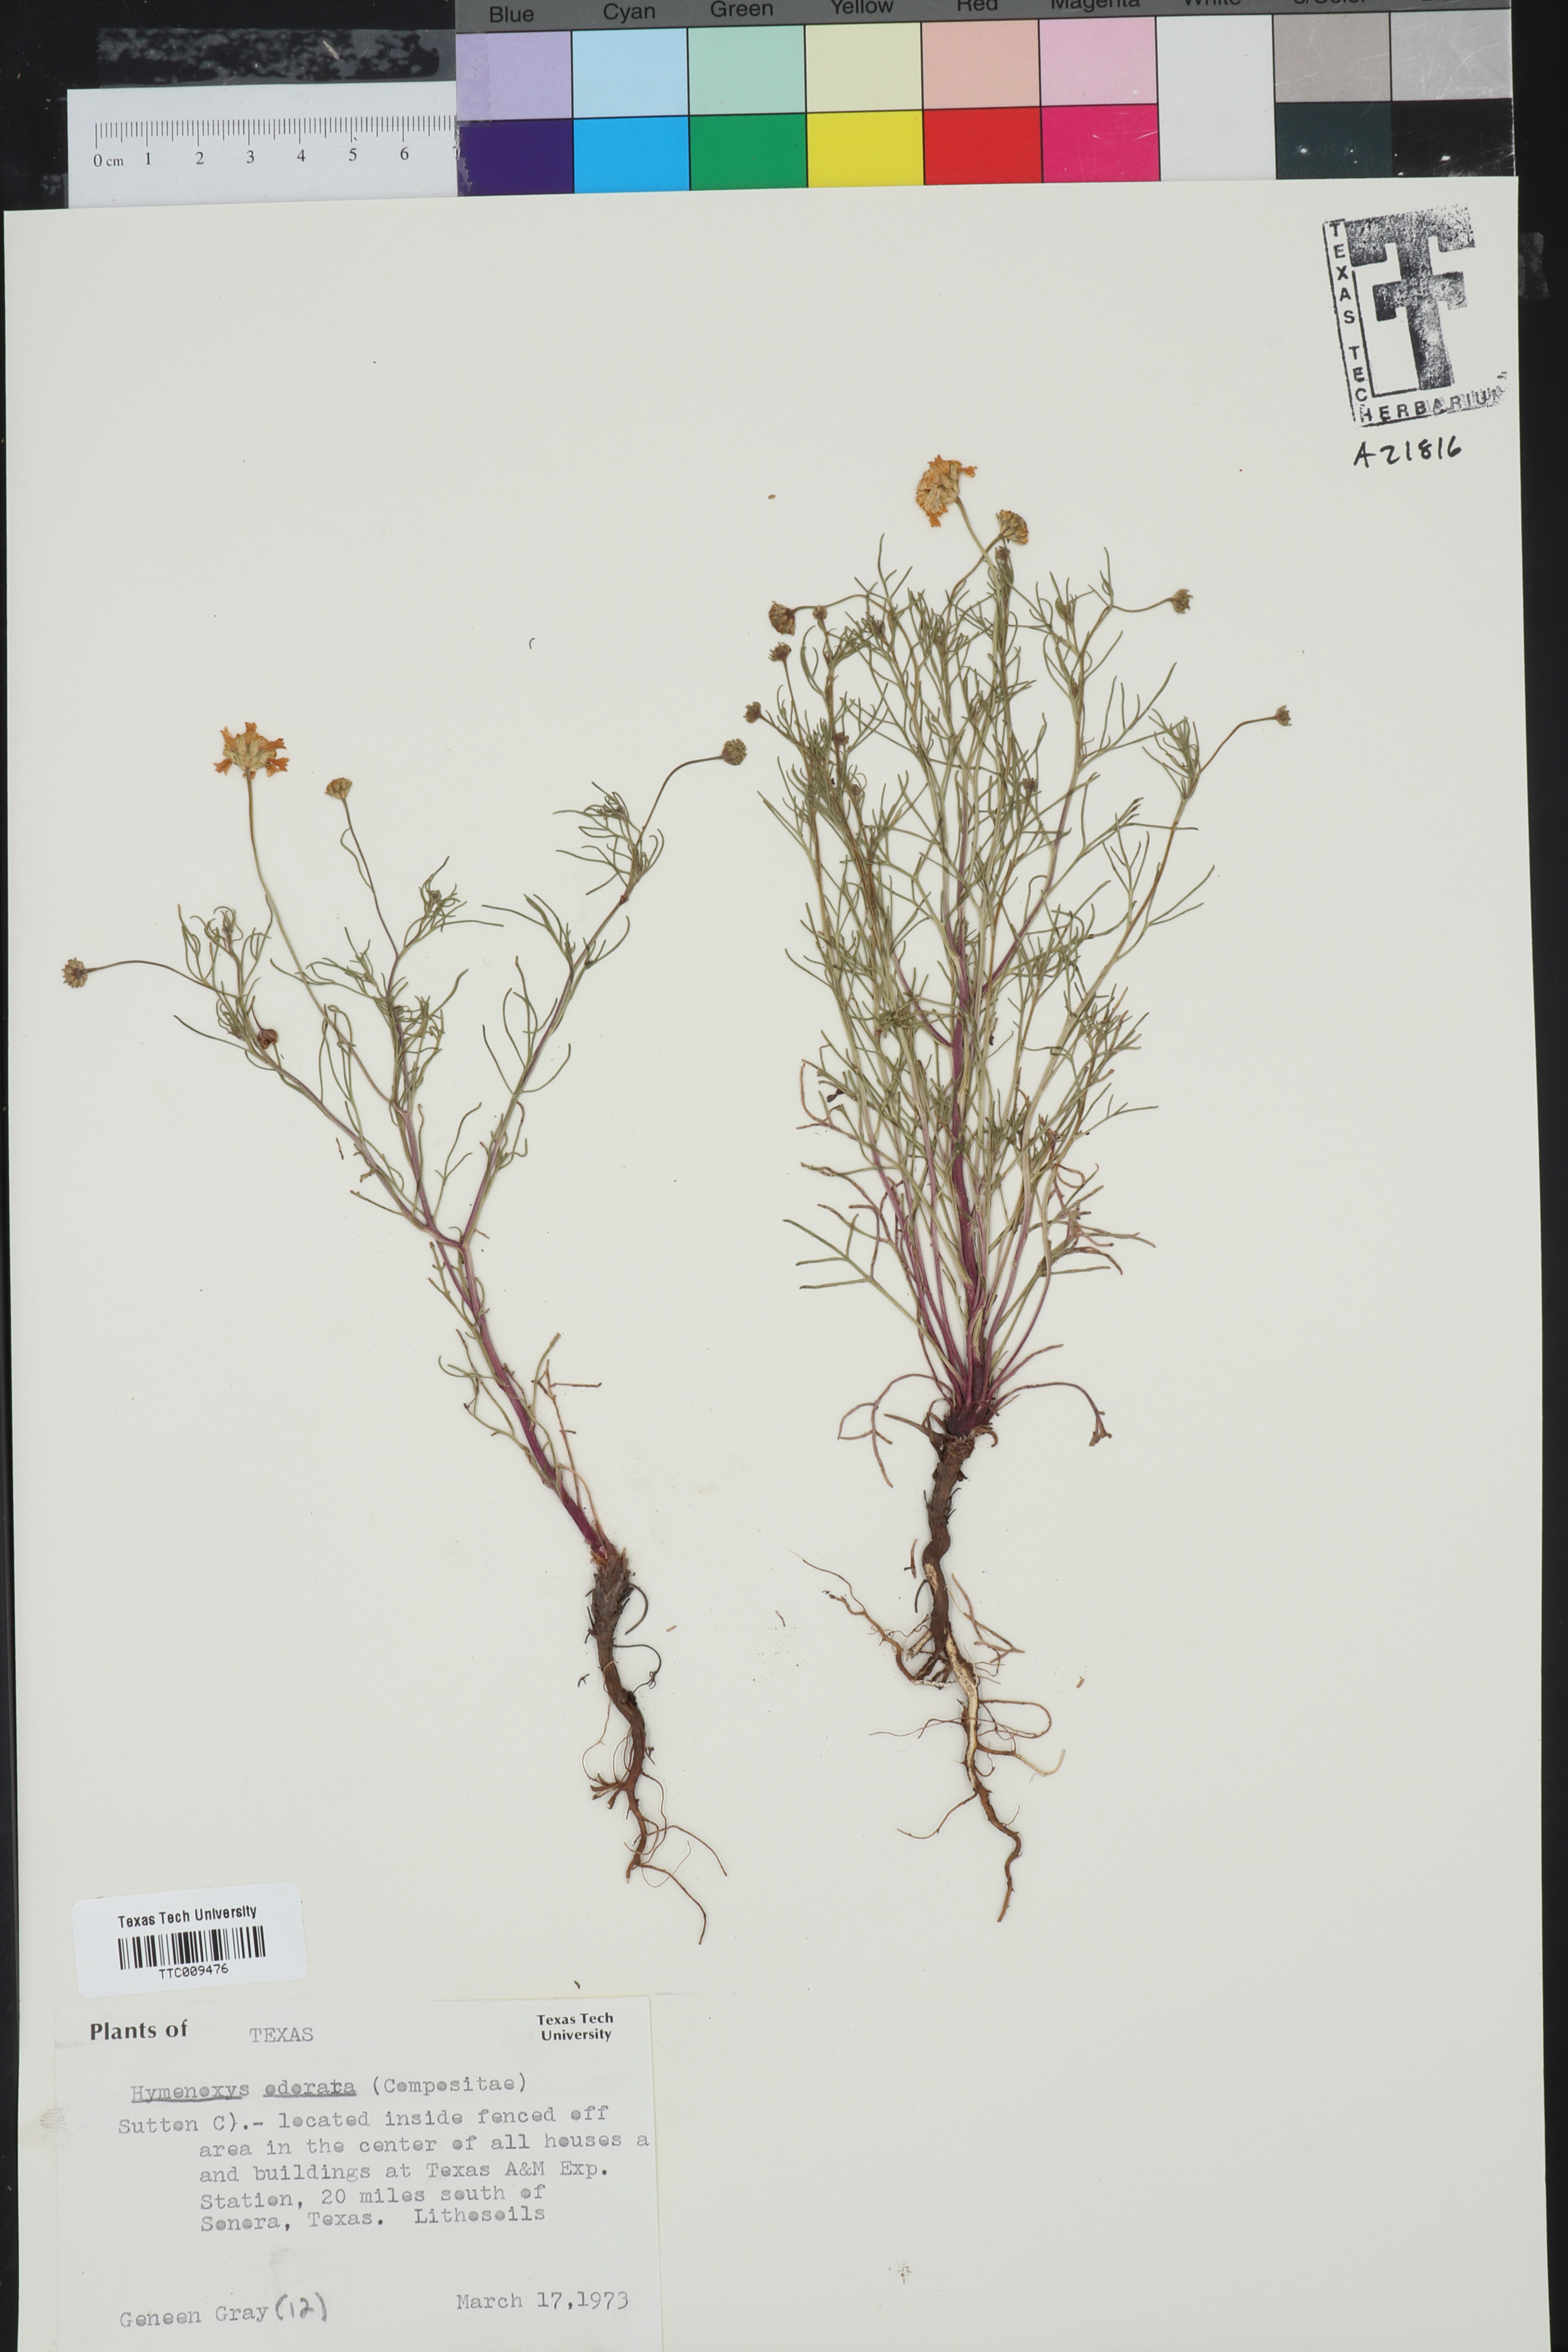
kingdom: Plantae
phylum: Tracheophyta
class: Magnoliopsida
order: Asterales
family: Asteraceae
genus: Hymenoxys
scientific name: Hymenoxys odorata
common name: Bitter rubberweed
